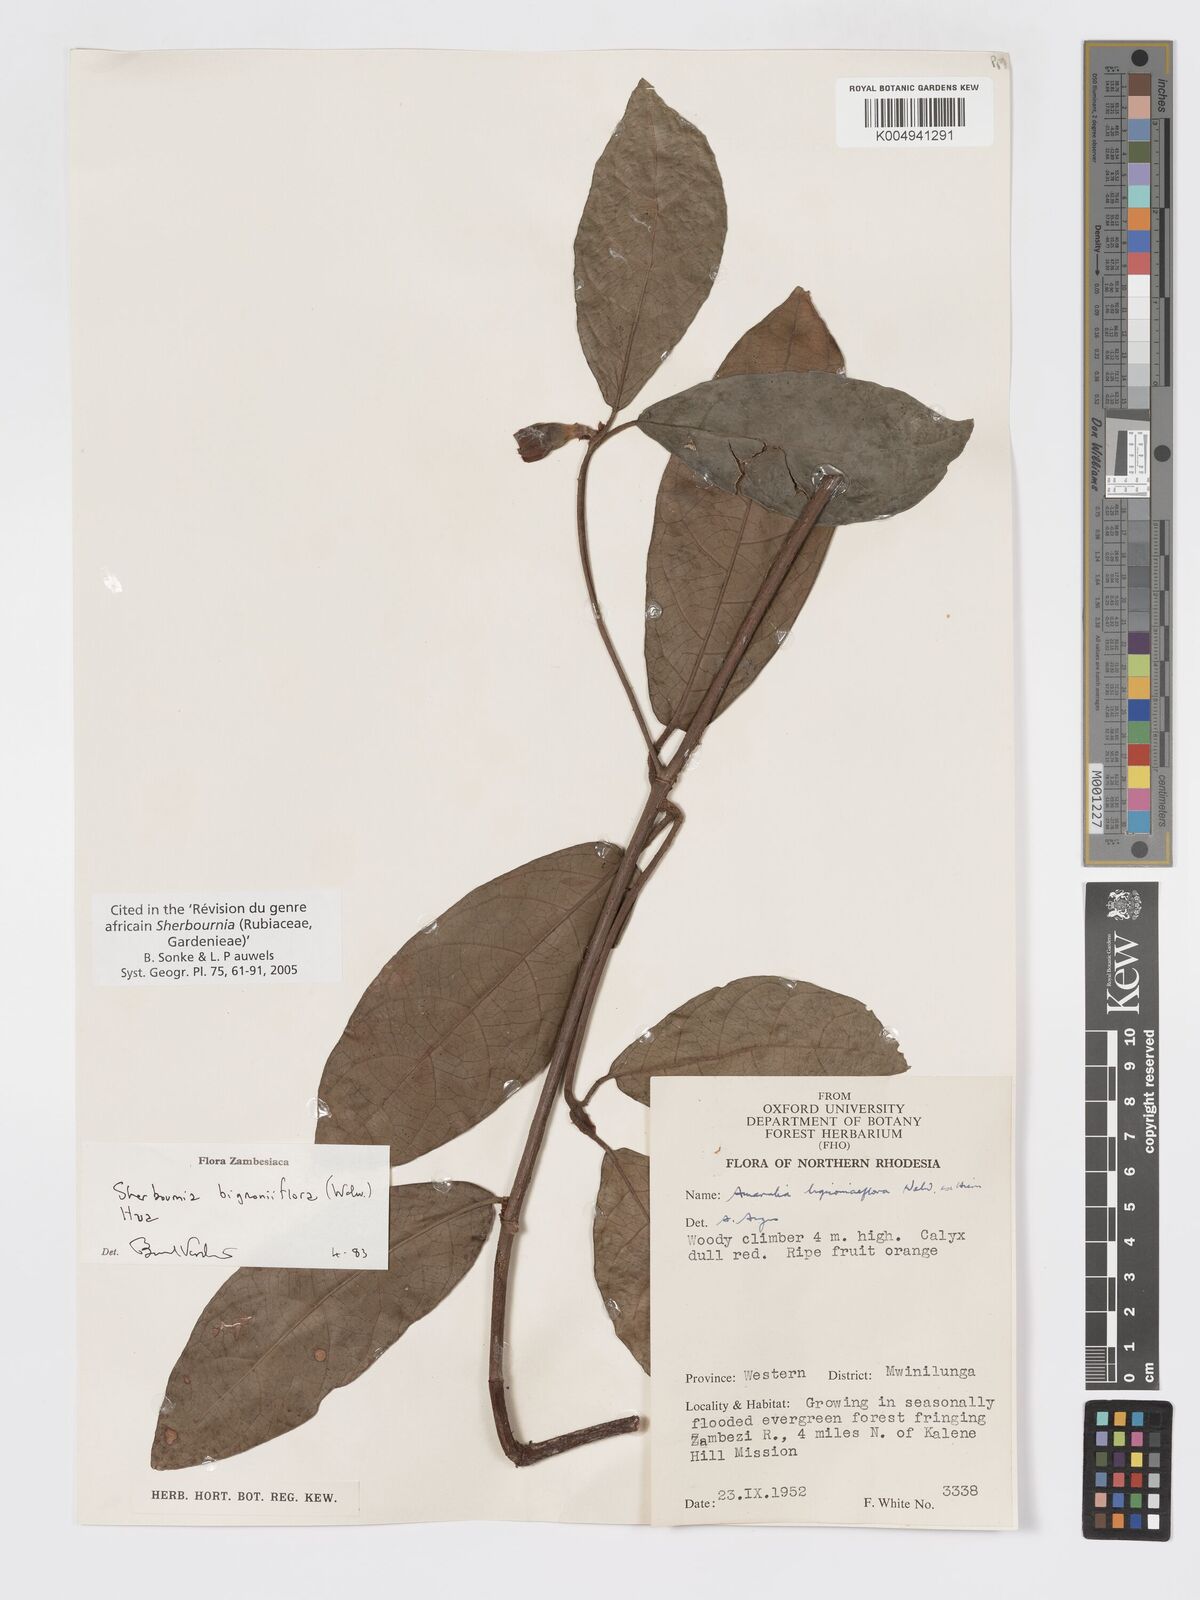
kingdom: Plantae
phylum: Tracheophyta
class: Magnoliopsida
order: Gentianales
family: Rubiaceae
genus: Sherbournia
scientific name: Sherbournia bignoniiflora
